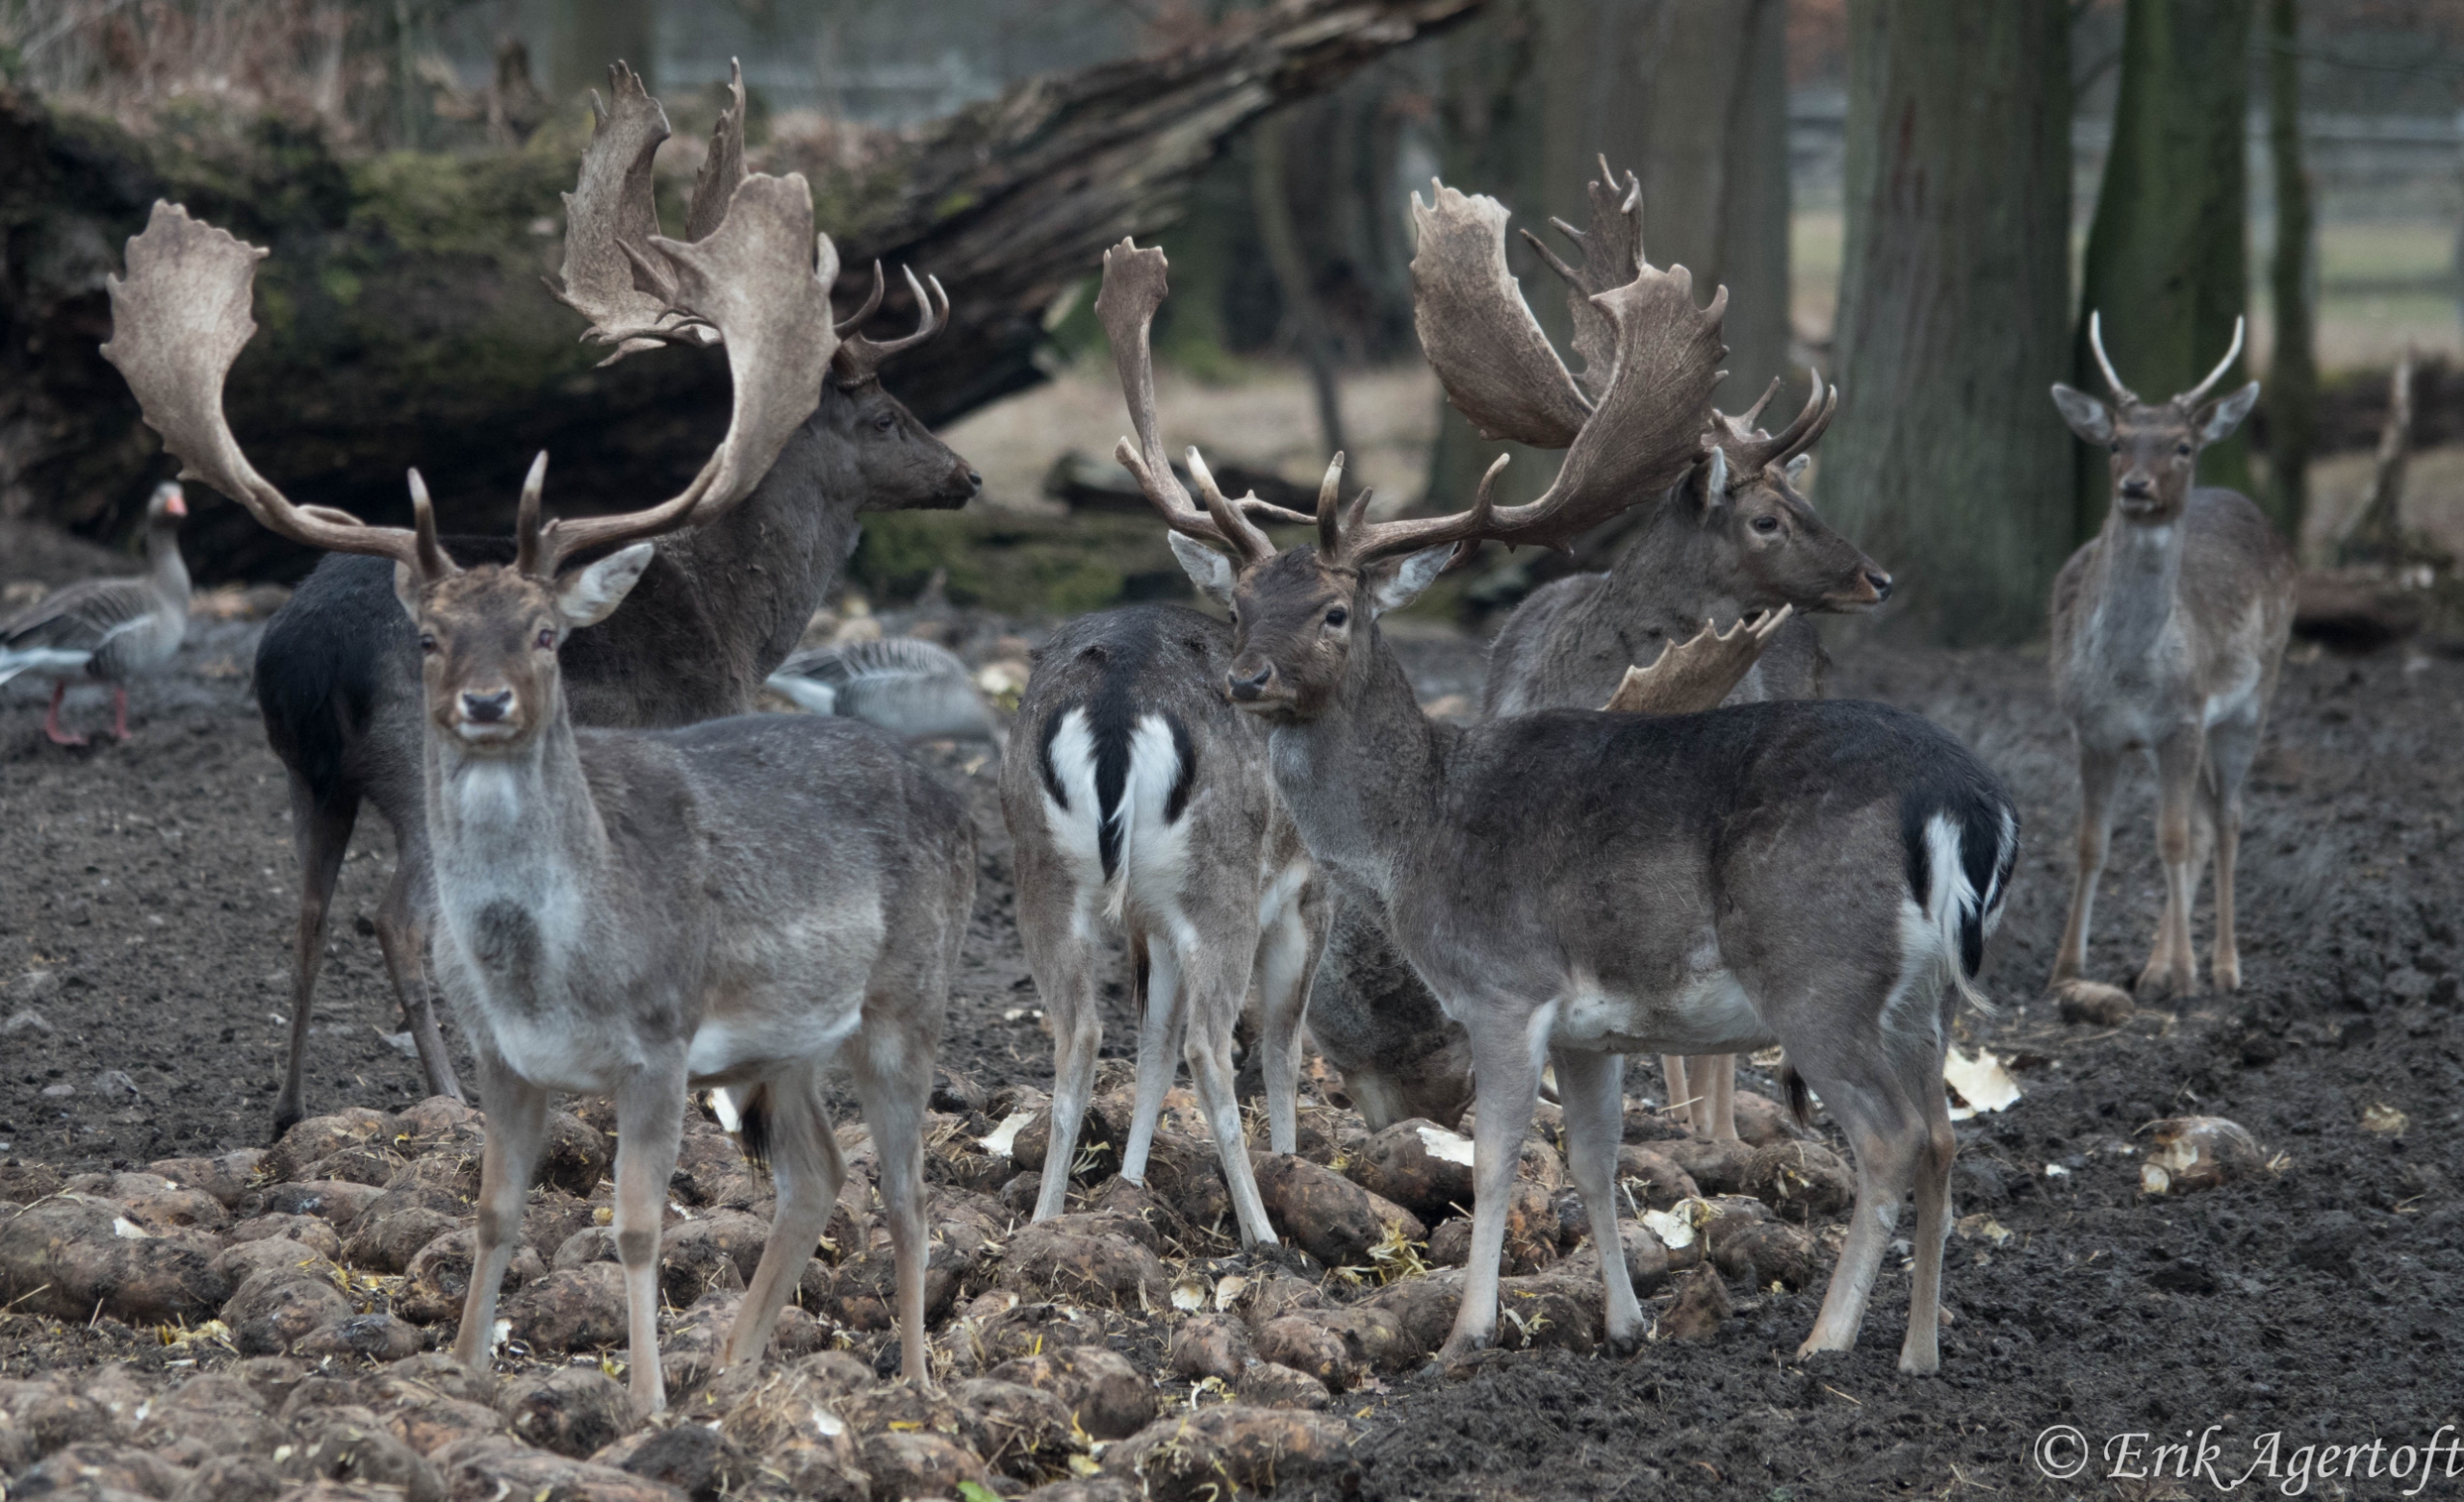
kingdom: Animalia
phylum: Chordata
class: Mammalia
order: Artiodactyla
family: Cervidae
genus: Dama
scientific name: Dama dama
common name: Dådyr
